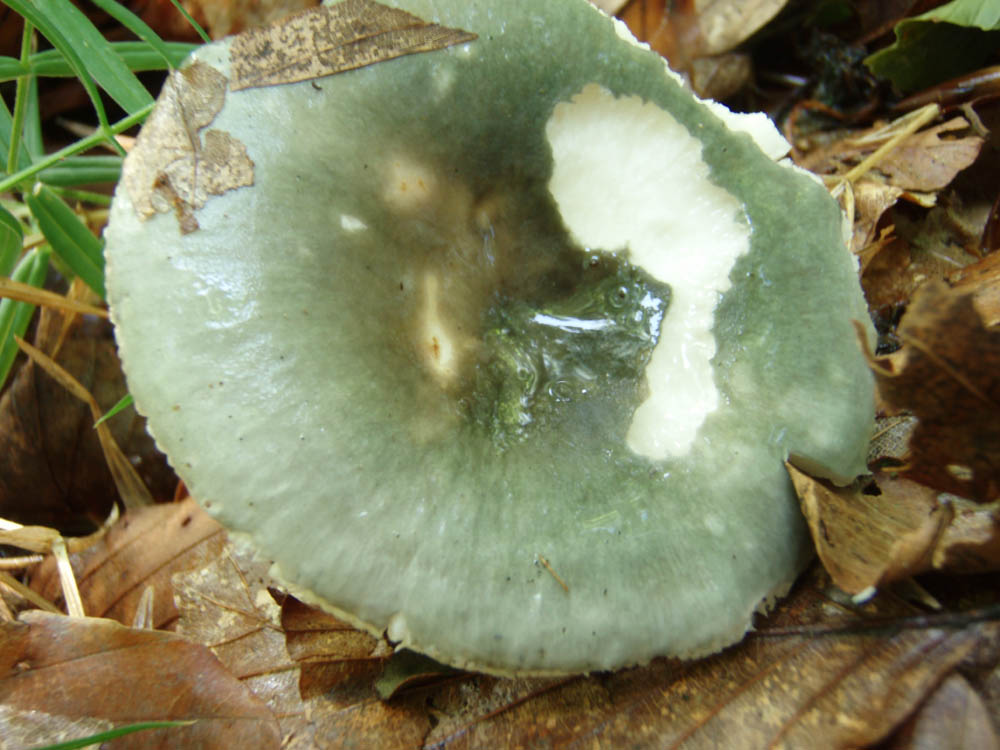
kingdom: Fungi
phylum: Basidiomycota
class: Agaricomycetes
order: Russulales
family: Russulaceae
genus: Russula
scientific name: Russula grisea
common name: grålig skørhat
